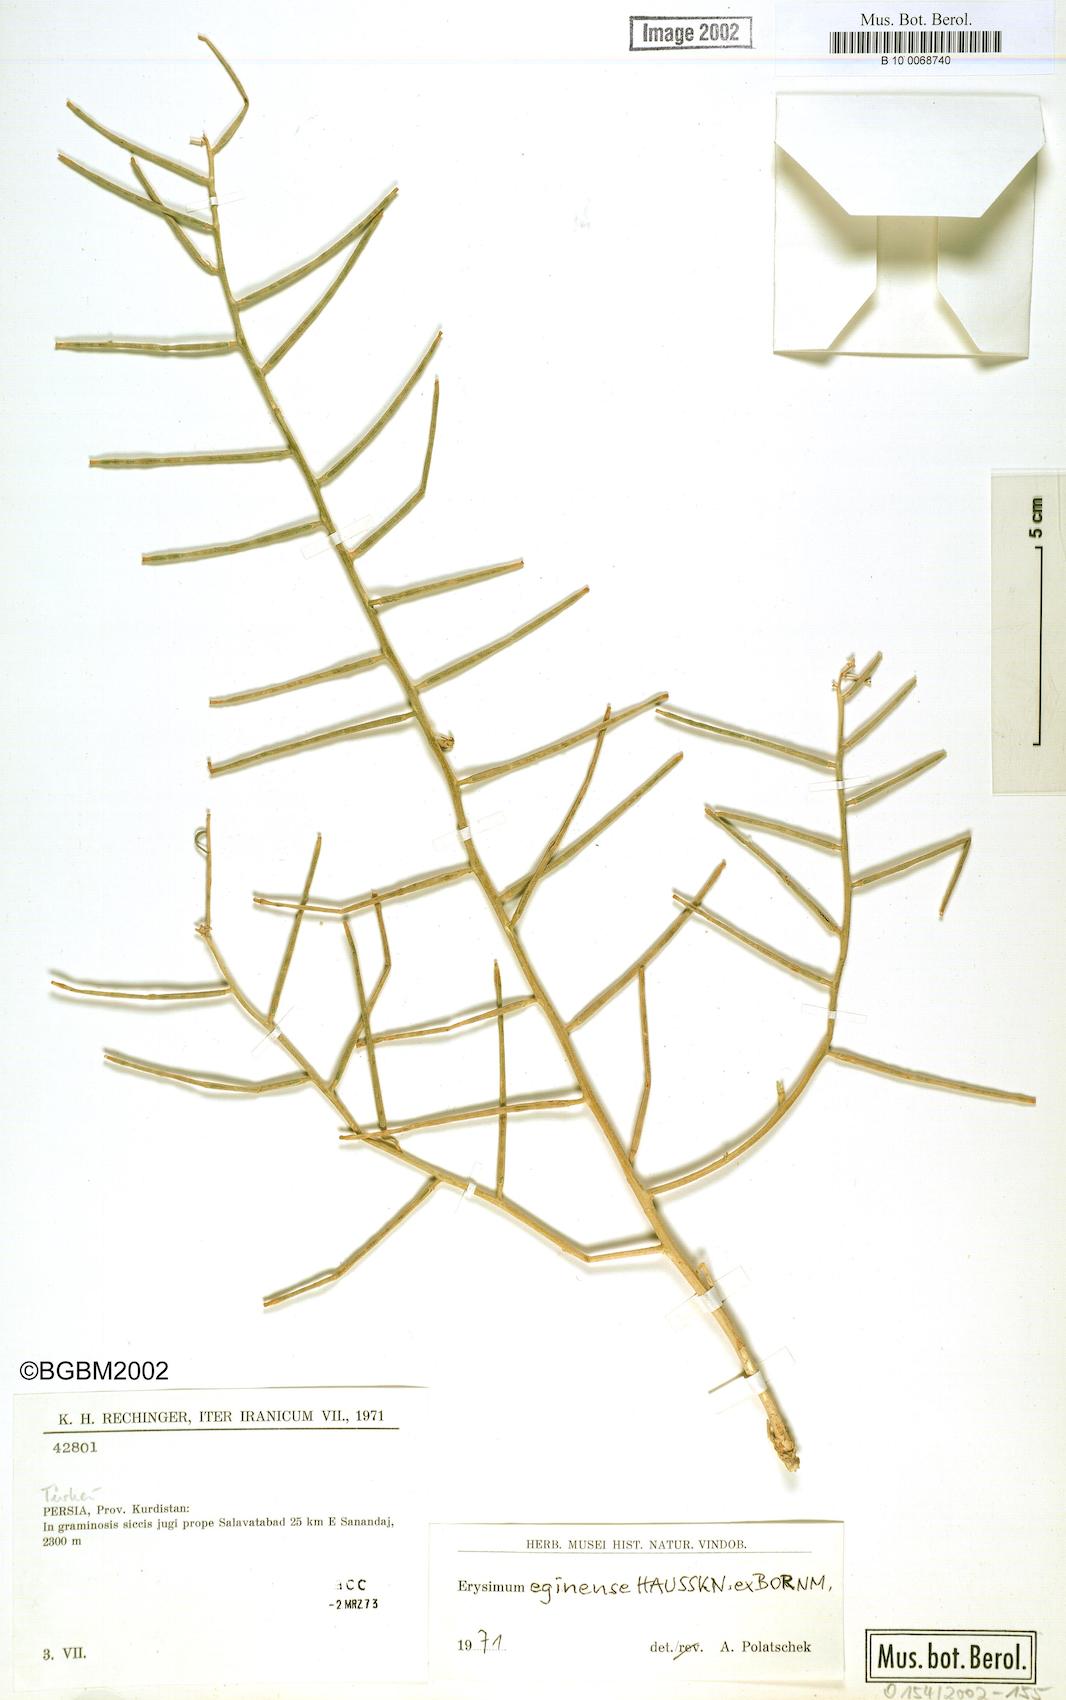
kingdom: Plantae
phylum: Tracheophyta
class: Magnoliopsida
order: Brassicales
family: Brassicaceae
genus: Erysimum
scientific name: Erysimum iraqense
